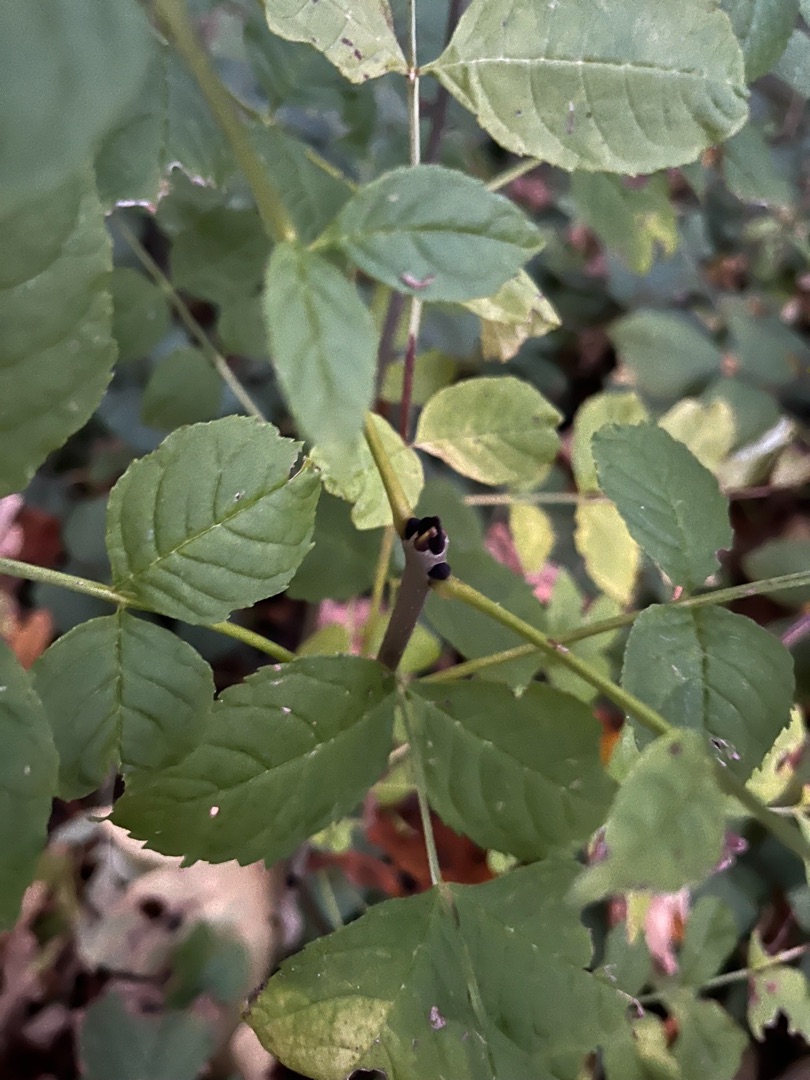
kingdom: Plantae
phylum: Tracheophyta
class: Magnoliopsida
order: Lamiales
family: Oleaceae
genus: Fraxinus
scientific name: Fraxinus excelsior
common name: Ask
